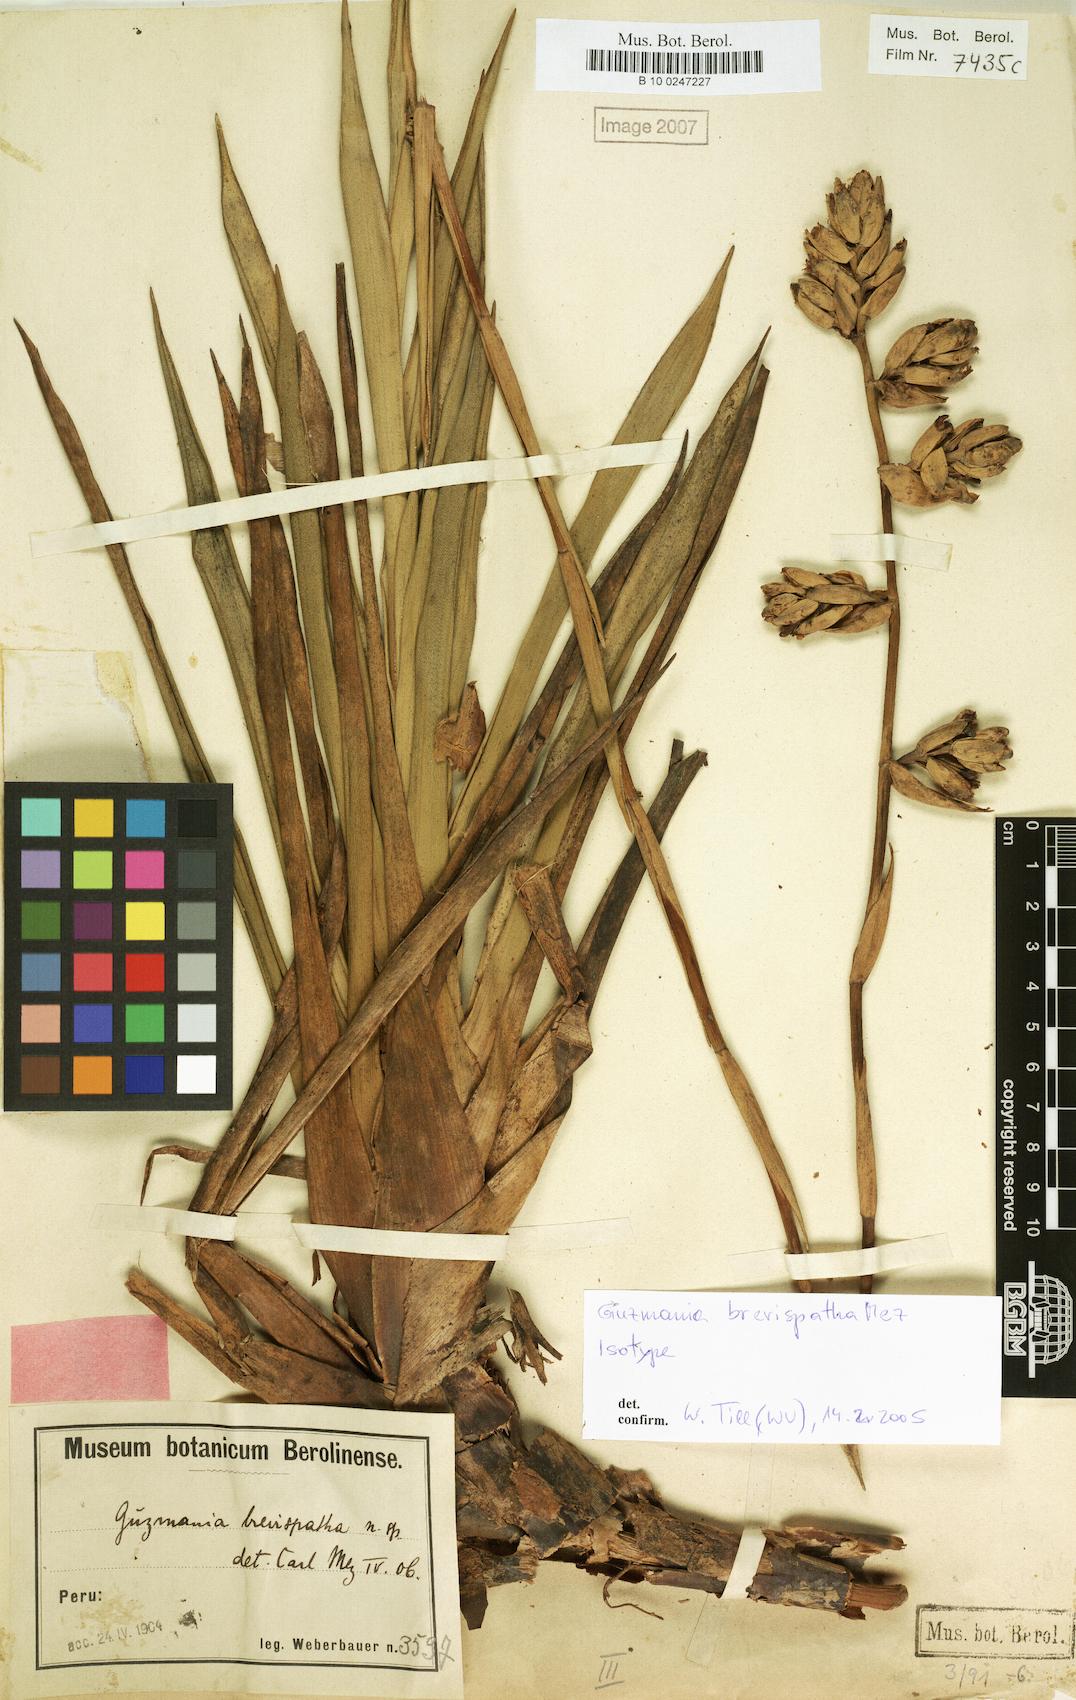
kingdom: Plantae
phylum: Tracheophyta
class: Liliopsida
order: Poales
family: Bromeliaceae
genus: Guzmania
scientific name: Guzmania brevispatha
